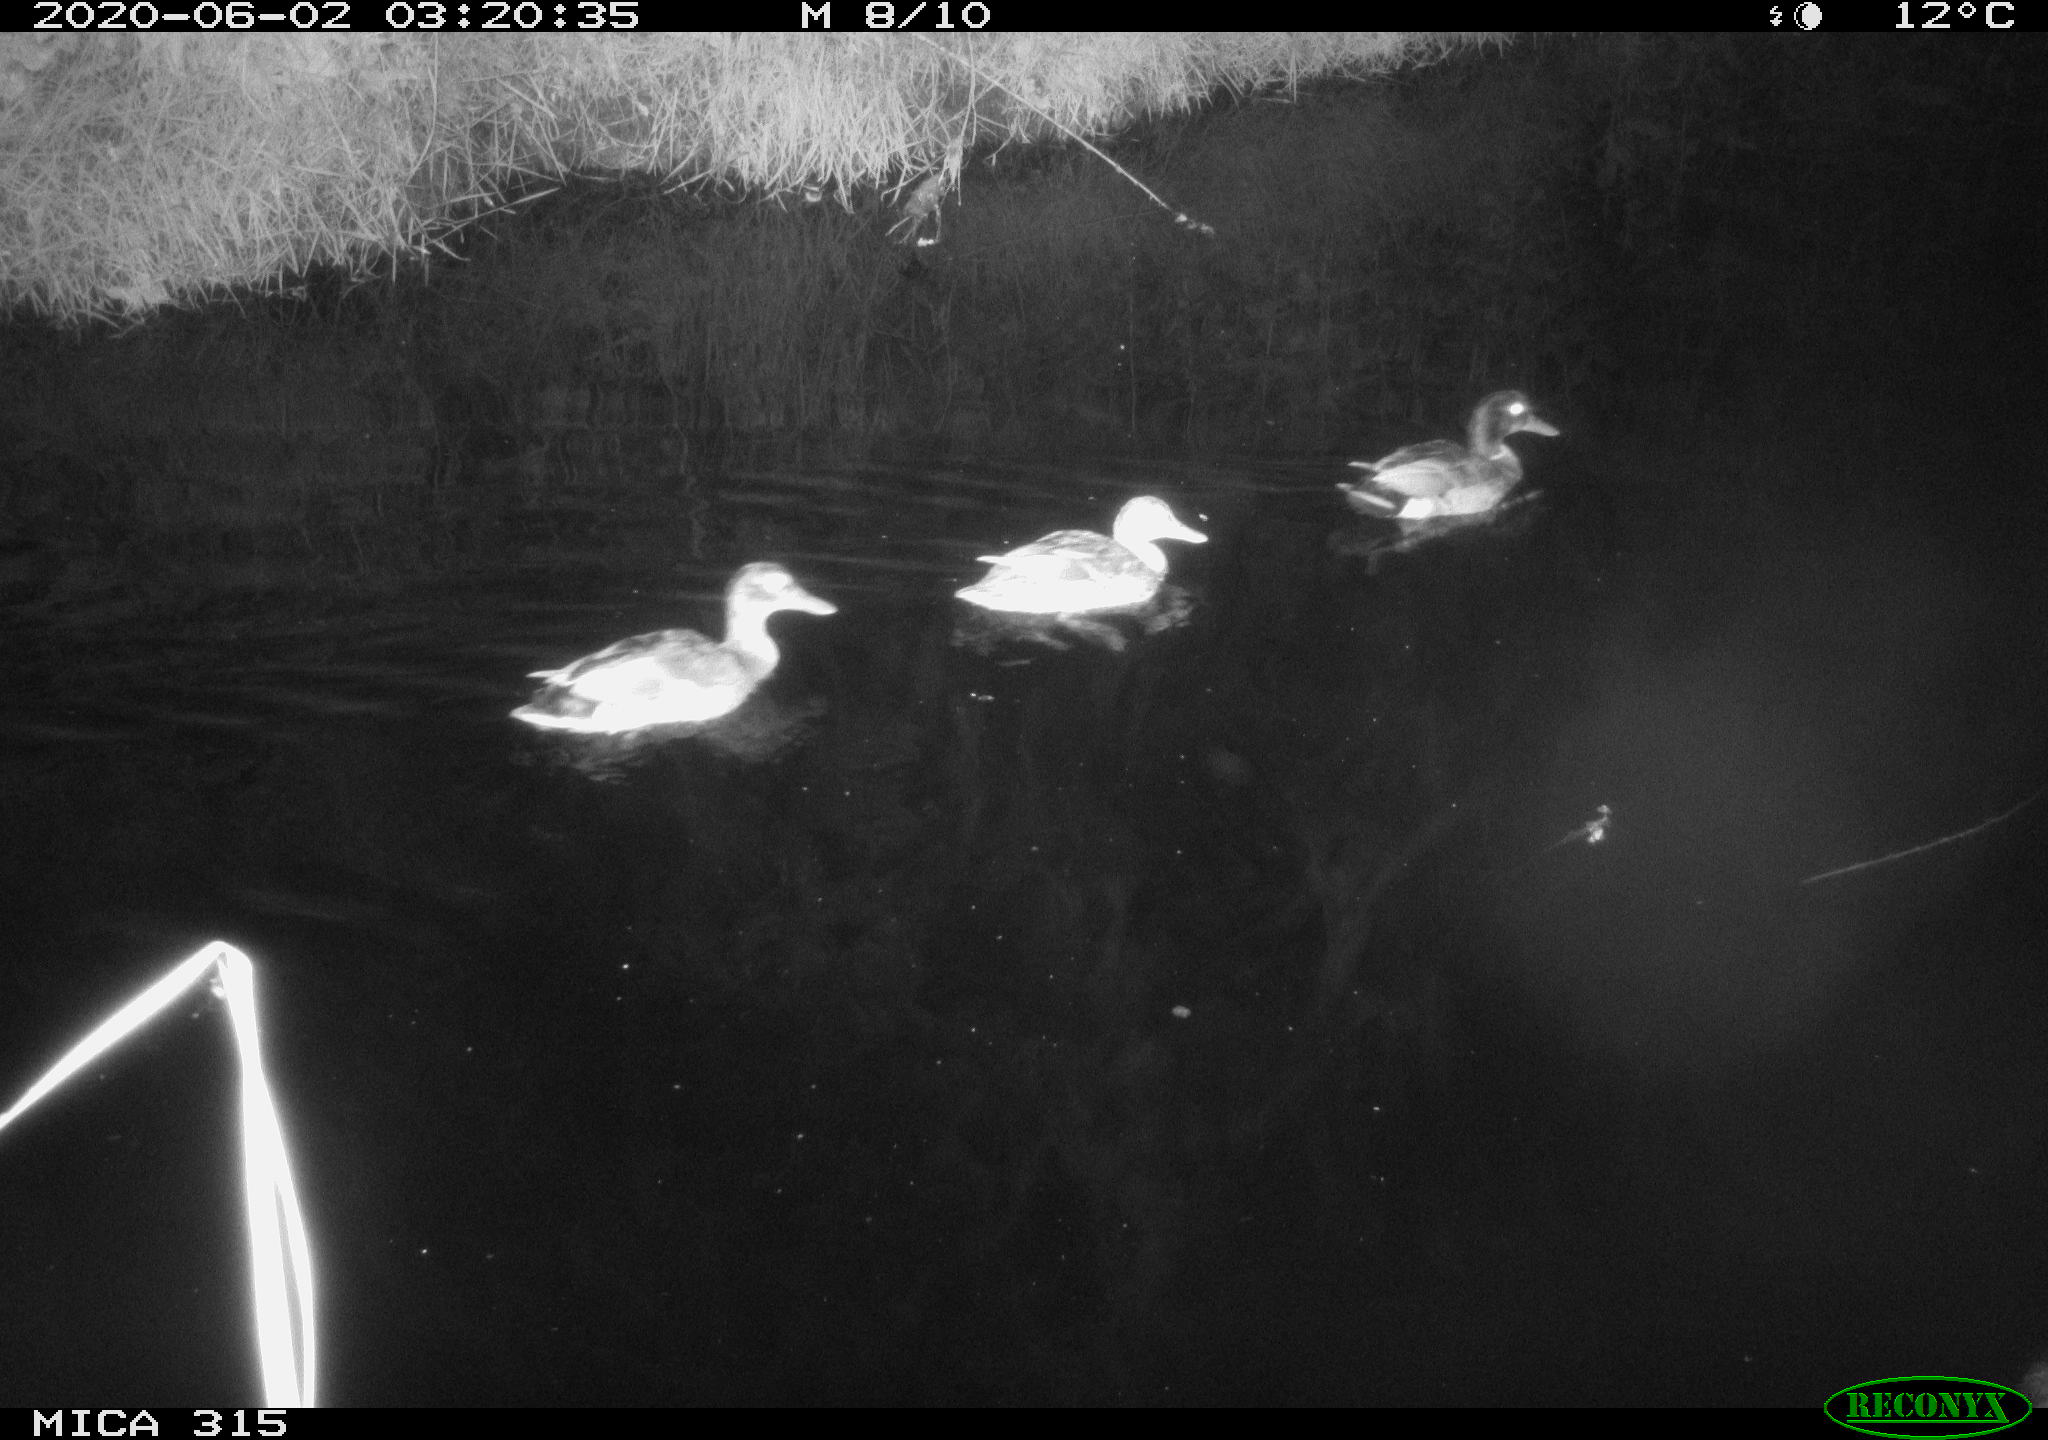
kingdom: Animalia
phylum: Chordata
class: Aves
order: Anseriformes
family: Anatidae
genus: Anas
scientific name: Anas platyrhynchos
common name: Mallard
